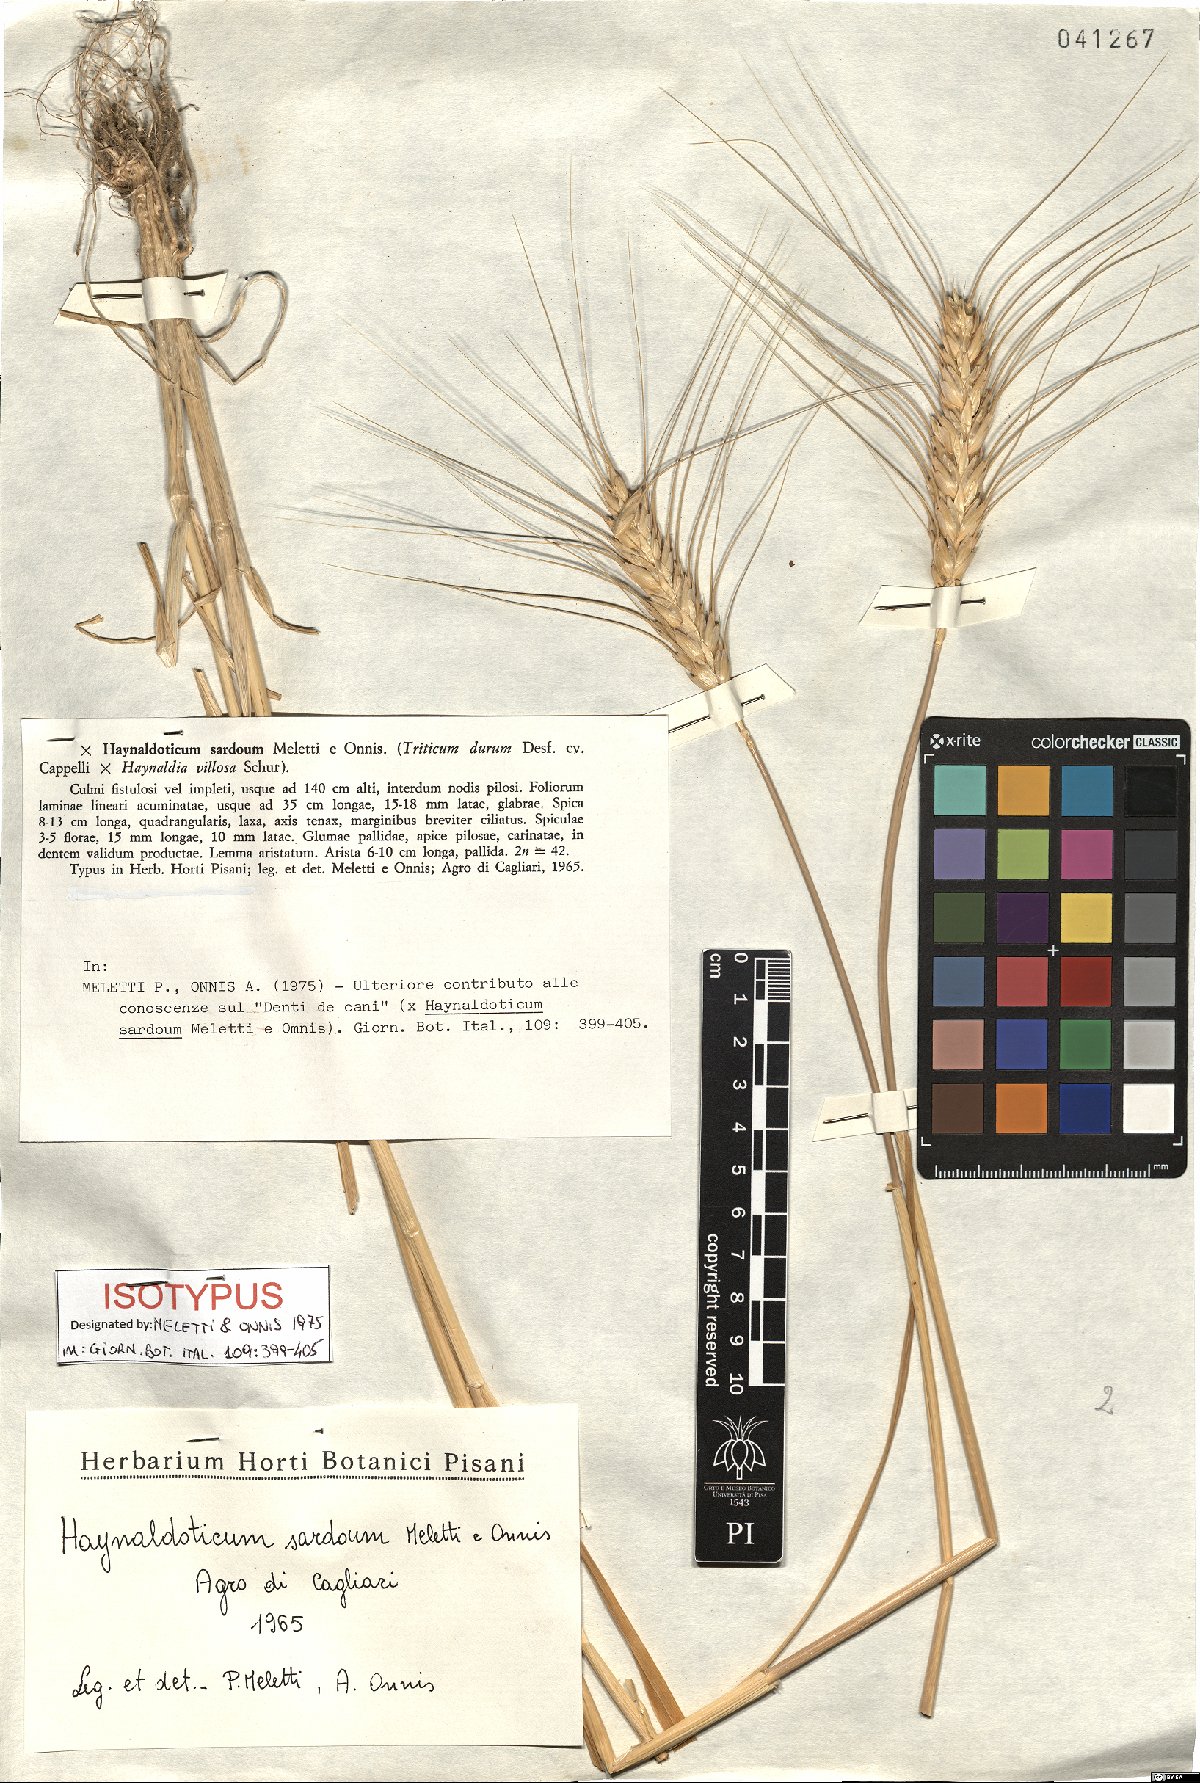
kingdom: Plantae
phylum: Tracheophyta
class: Liliopsida
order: Poales
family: Poaceae
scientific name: Poaceae
